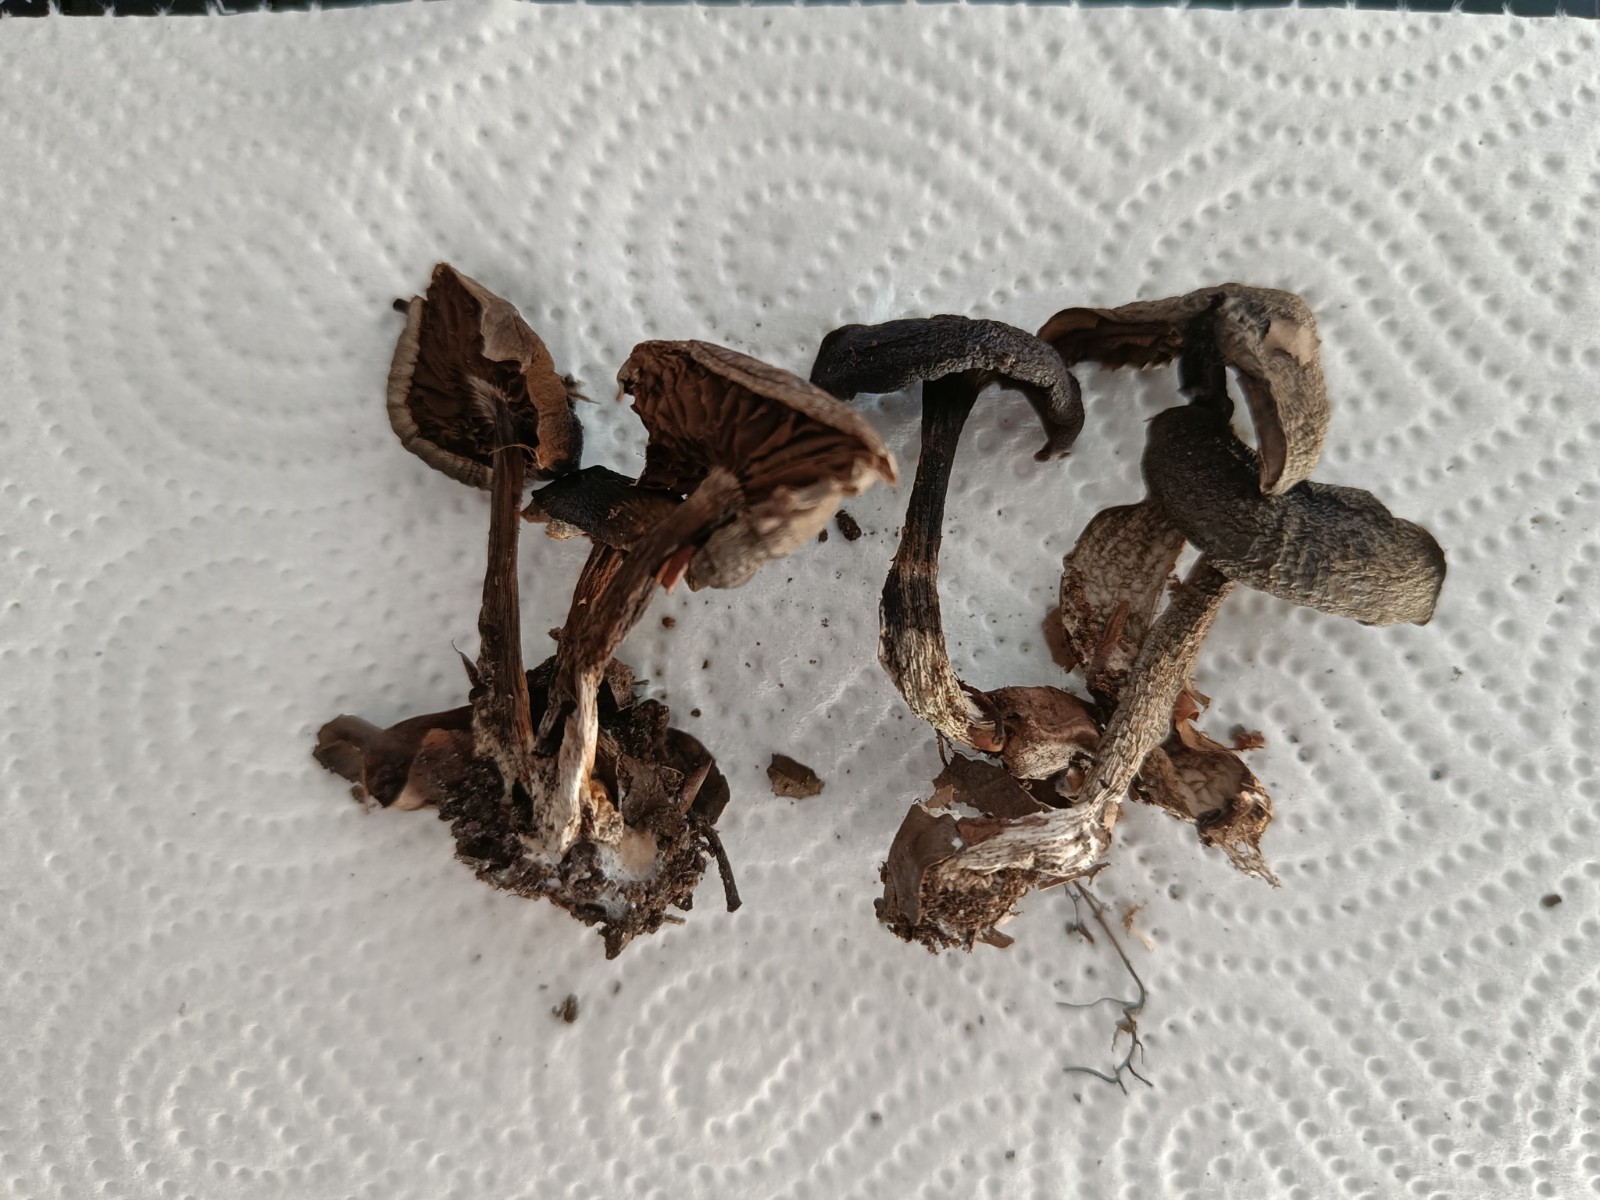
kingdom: Fungi
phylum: Basidiomycota
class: Agaricomycetes
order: Agaricales
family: Cortinariaceae
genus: Cortinarius
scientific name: Cortinarius phaeosmus
